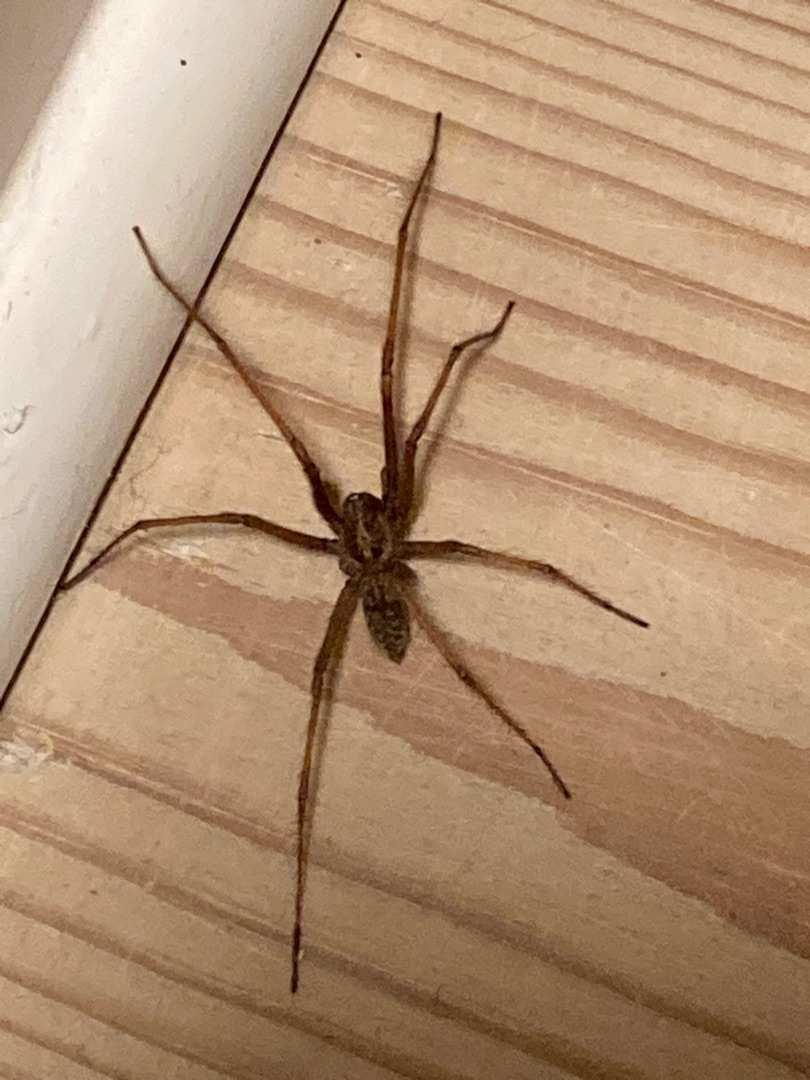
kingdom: Animalia
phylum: Arthropoda
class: Arachnida
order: Araneae
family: Agelenidae
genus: Eratigena
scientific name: Eratigena atrica
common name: Stor husedderkop
